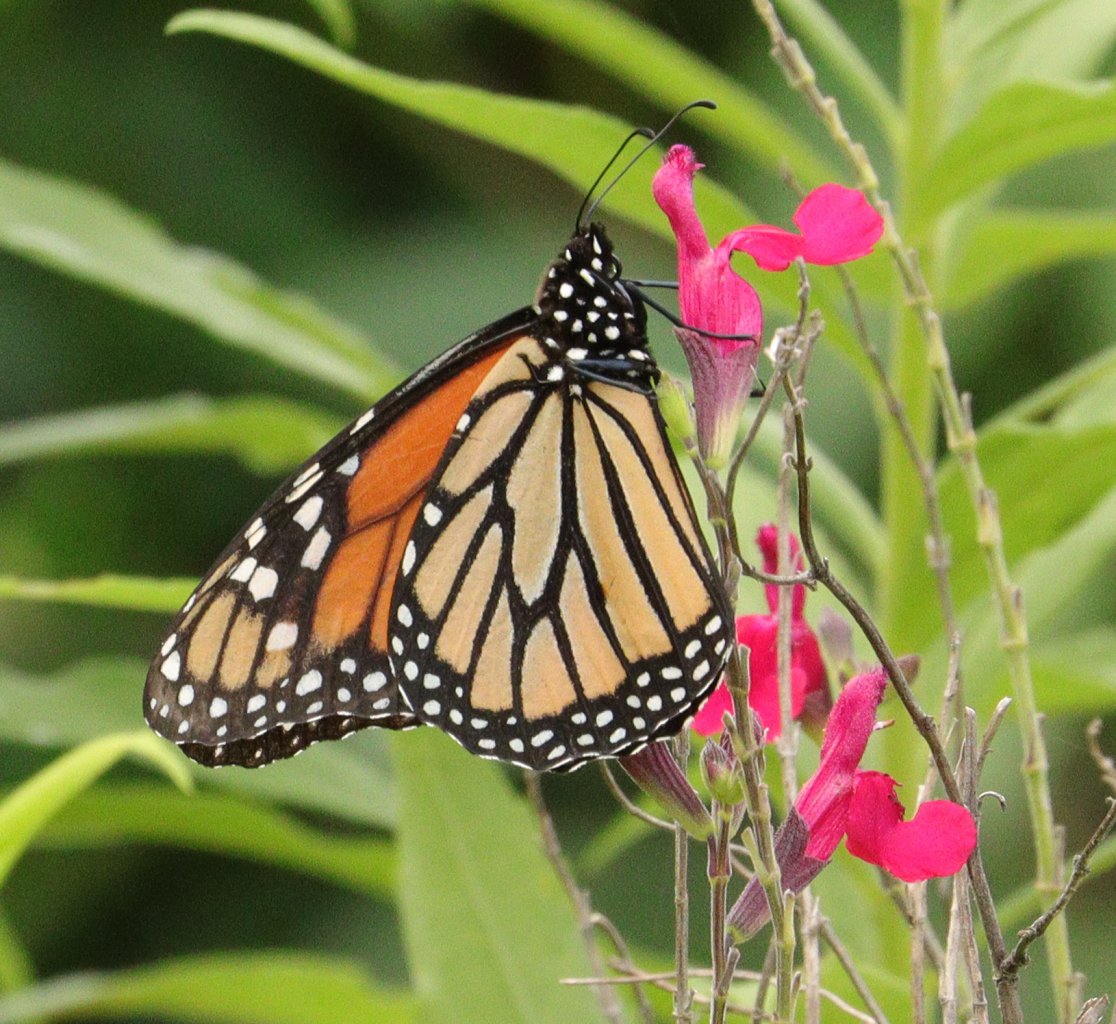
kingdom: Animalia
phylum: Arthropoda
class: Insecta
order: Lepidoptera
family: Nymphalidae
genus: Danaus
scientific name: Danaus plexippus
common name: Monarch
